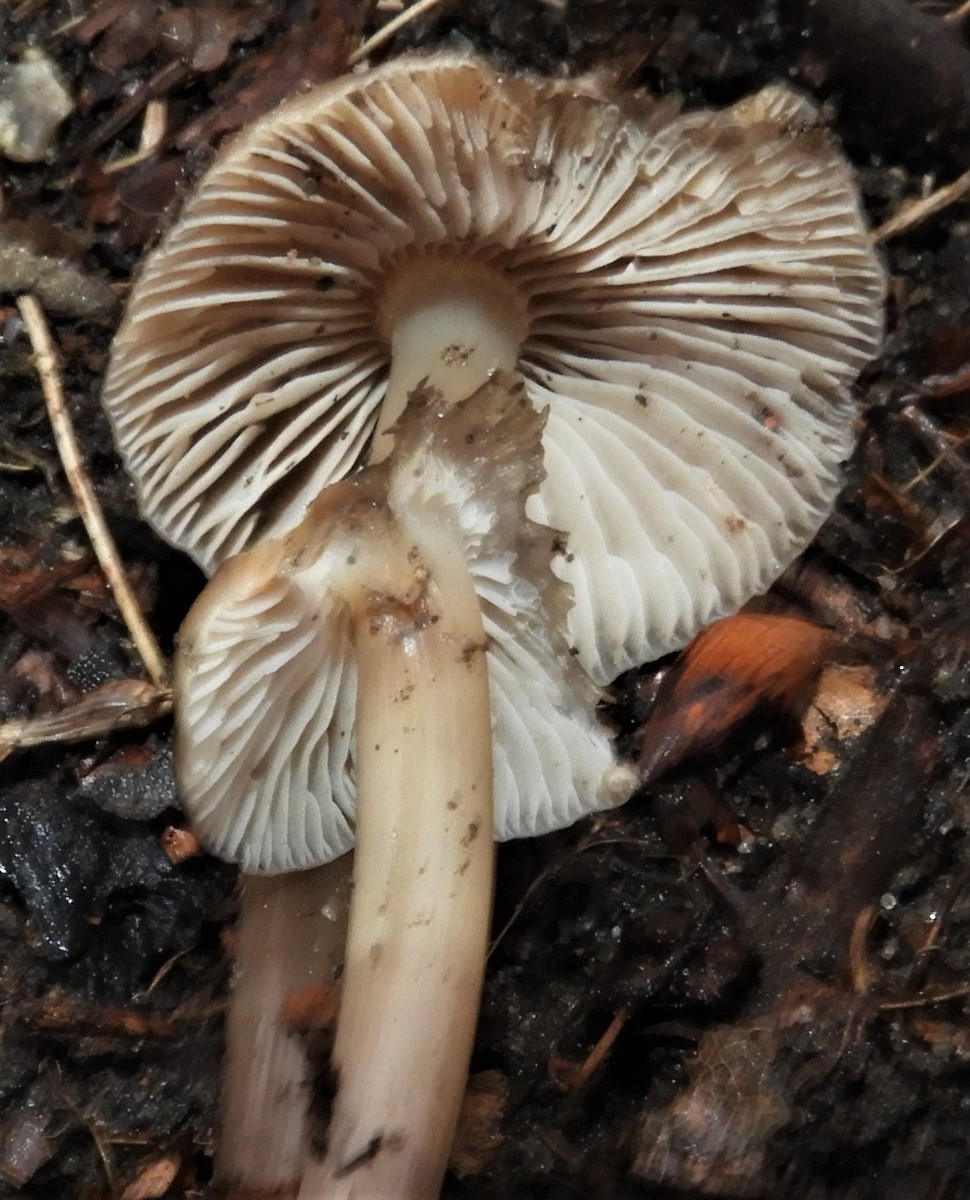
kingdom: Fungi
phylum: Basidiomycota
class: Agaricomycetes
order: Agaricales
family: Mycenaceae
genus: Mycena
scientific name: Mycena galericulata
